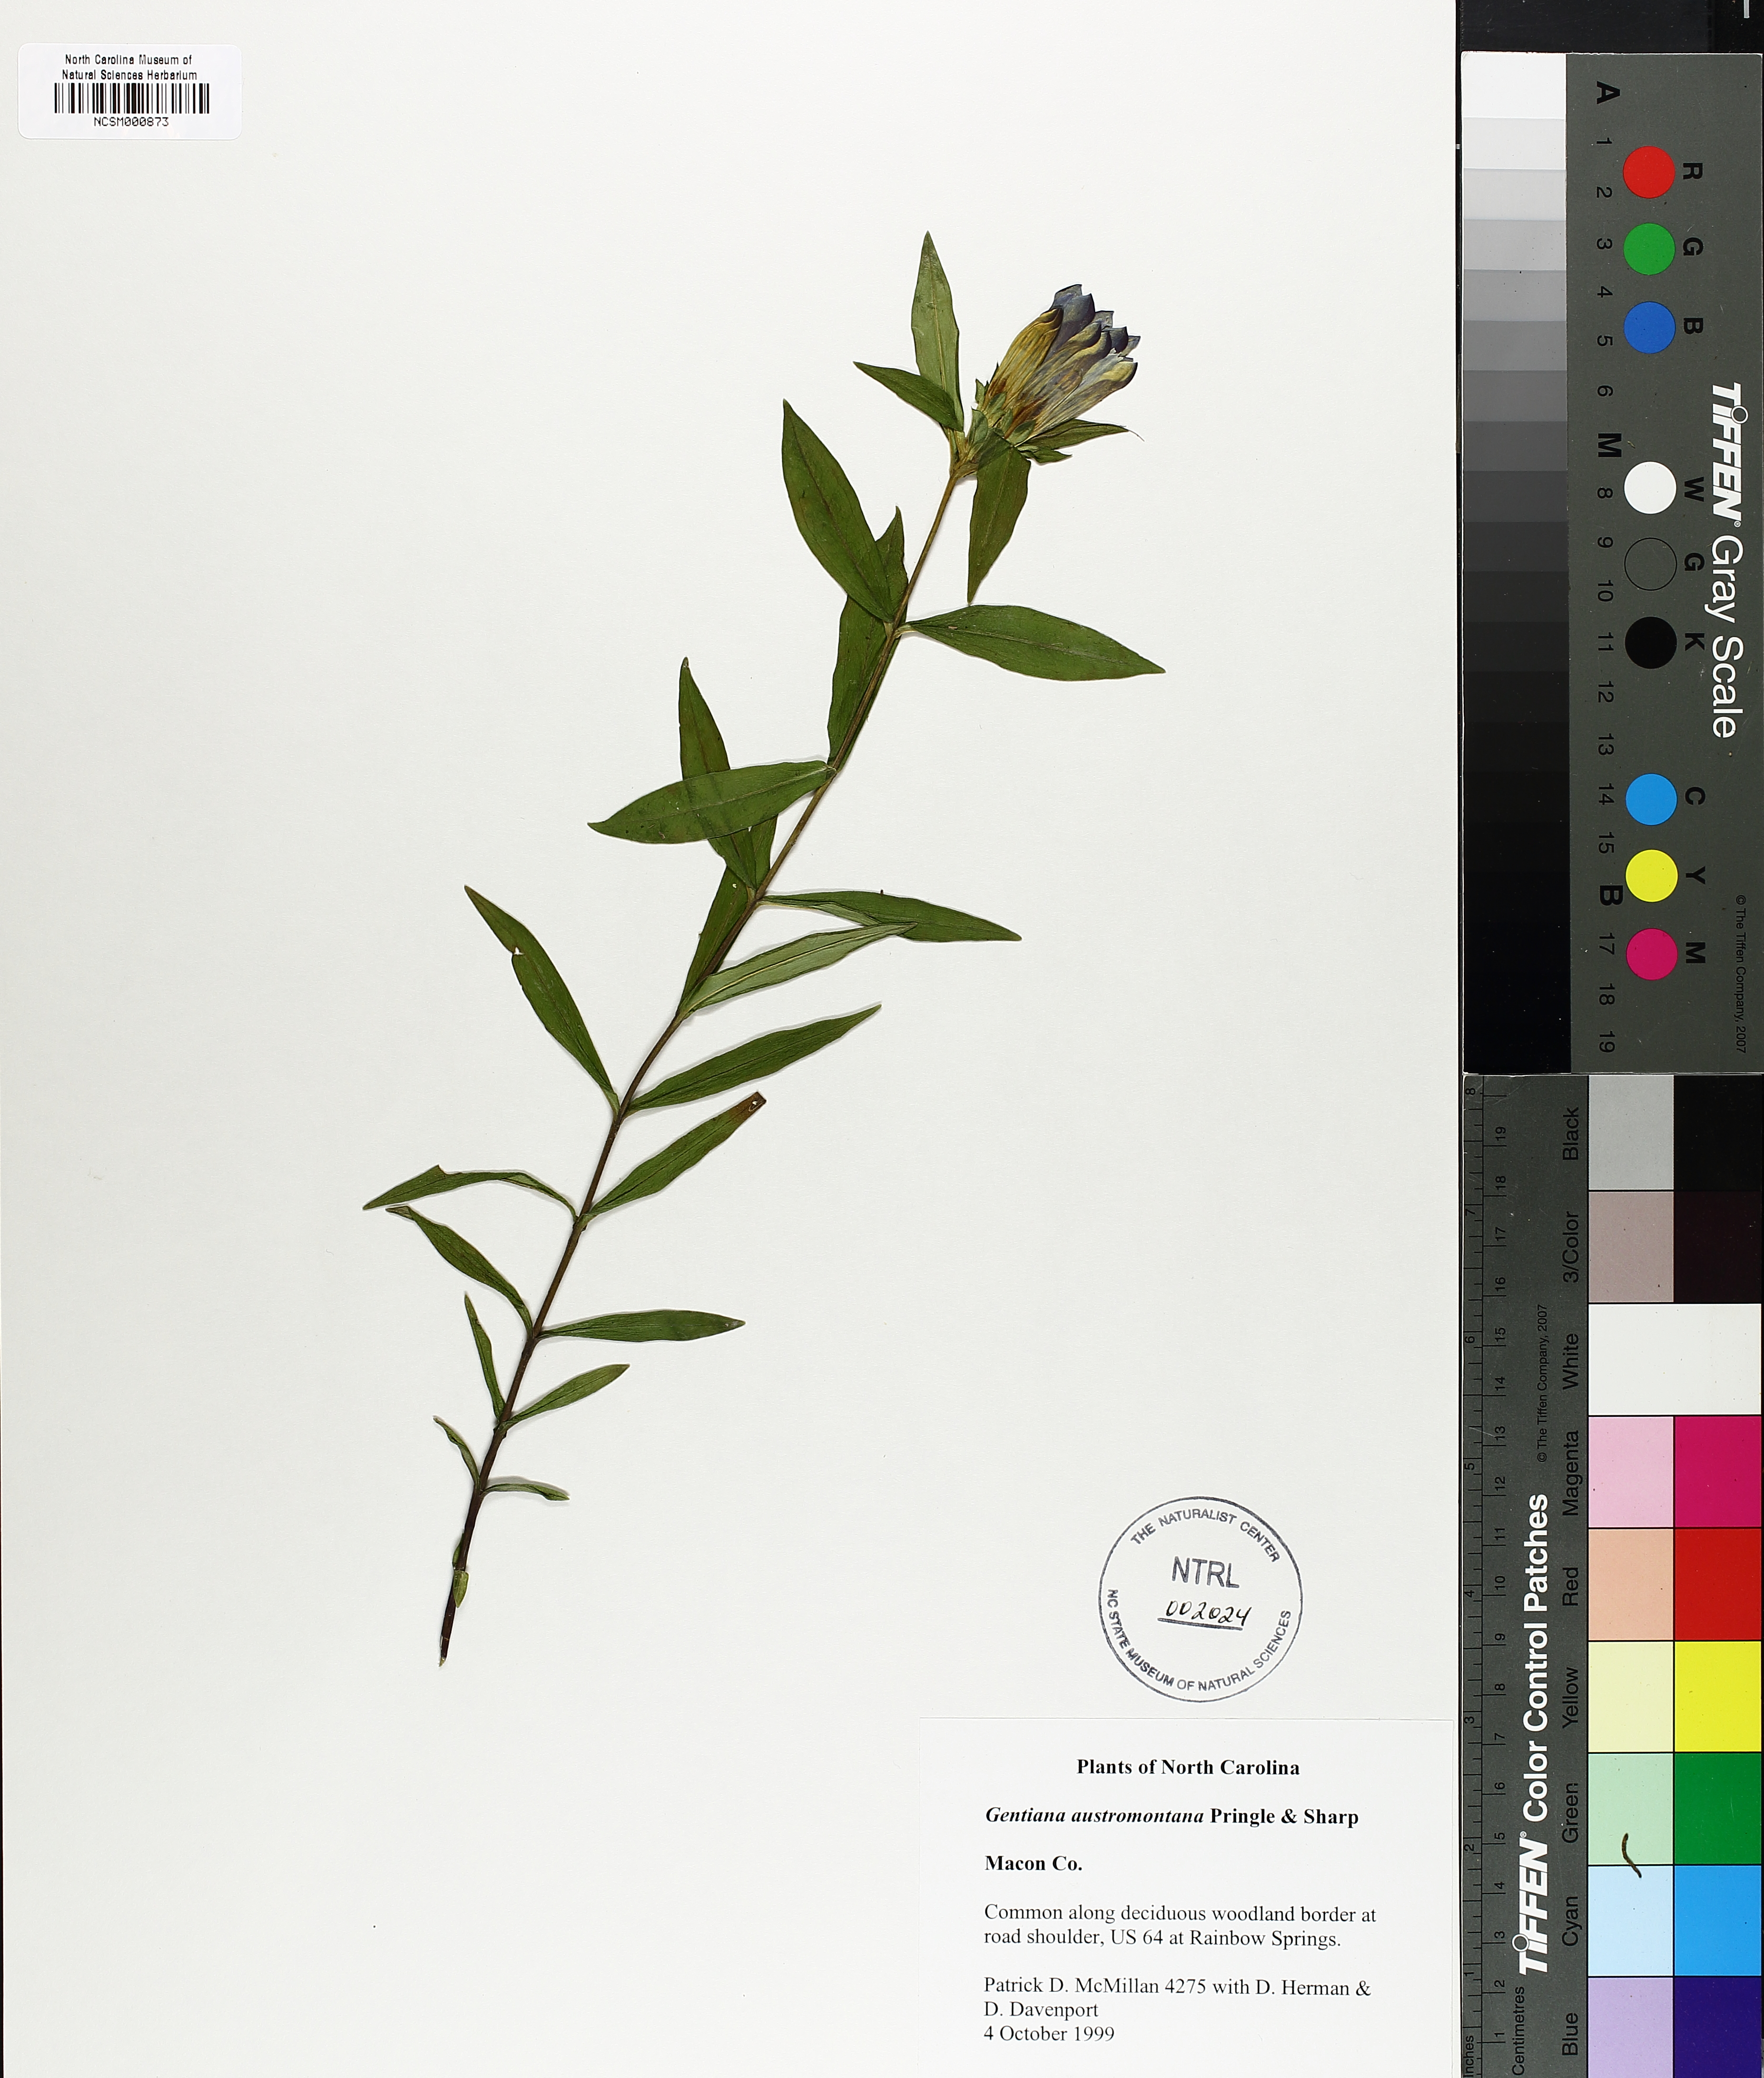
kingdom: Plantae
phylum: Tracheophyta
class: Magnoliopsida
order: Gentianales
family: Gentianaceae
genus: Gentiana
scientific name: Gentiana austromontana
